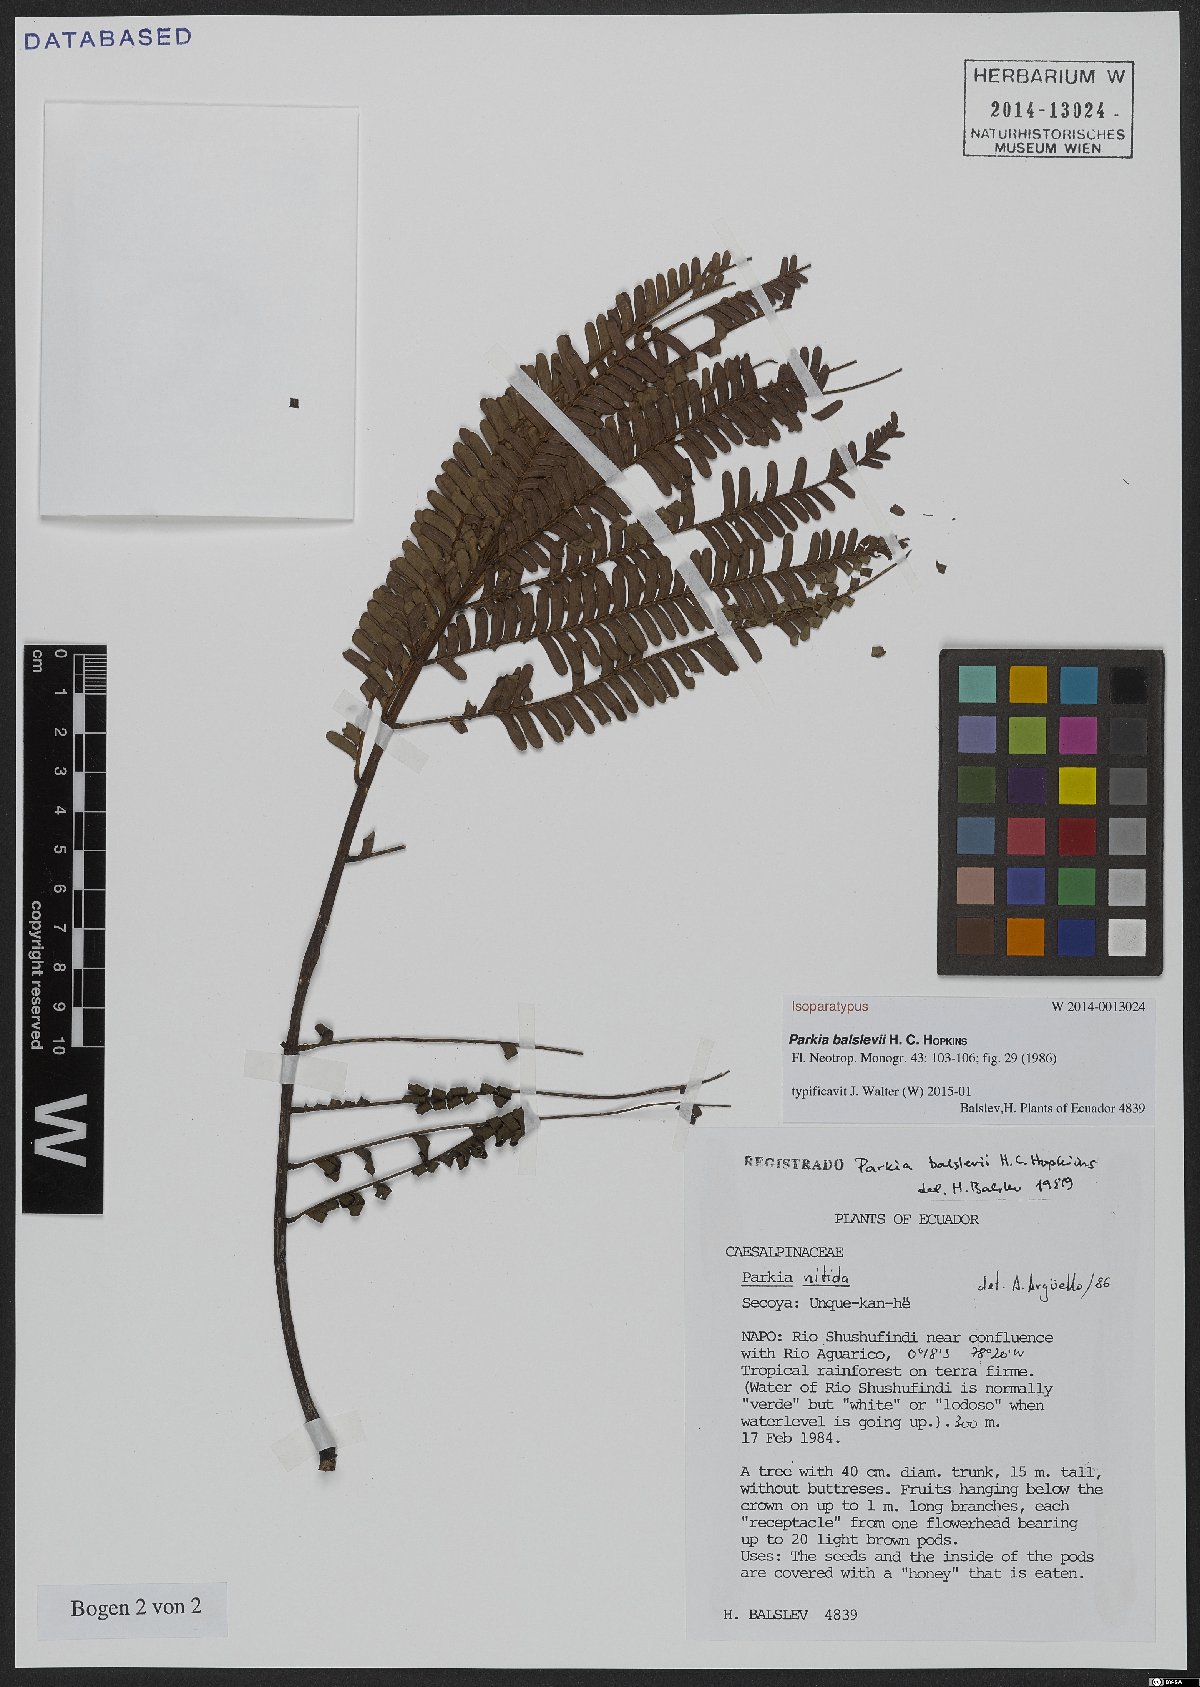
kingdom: Plantae
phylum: Tracheophyta
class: Magnoliopsida
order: Fabales
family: Fabaceae
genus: Parkia
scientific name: Parkia balslevii
